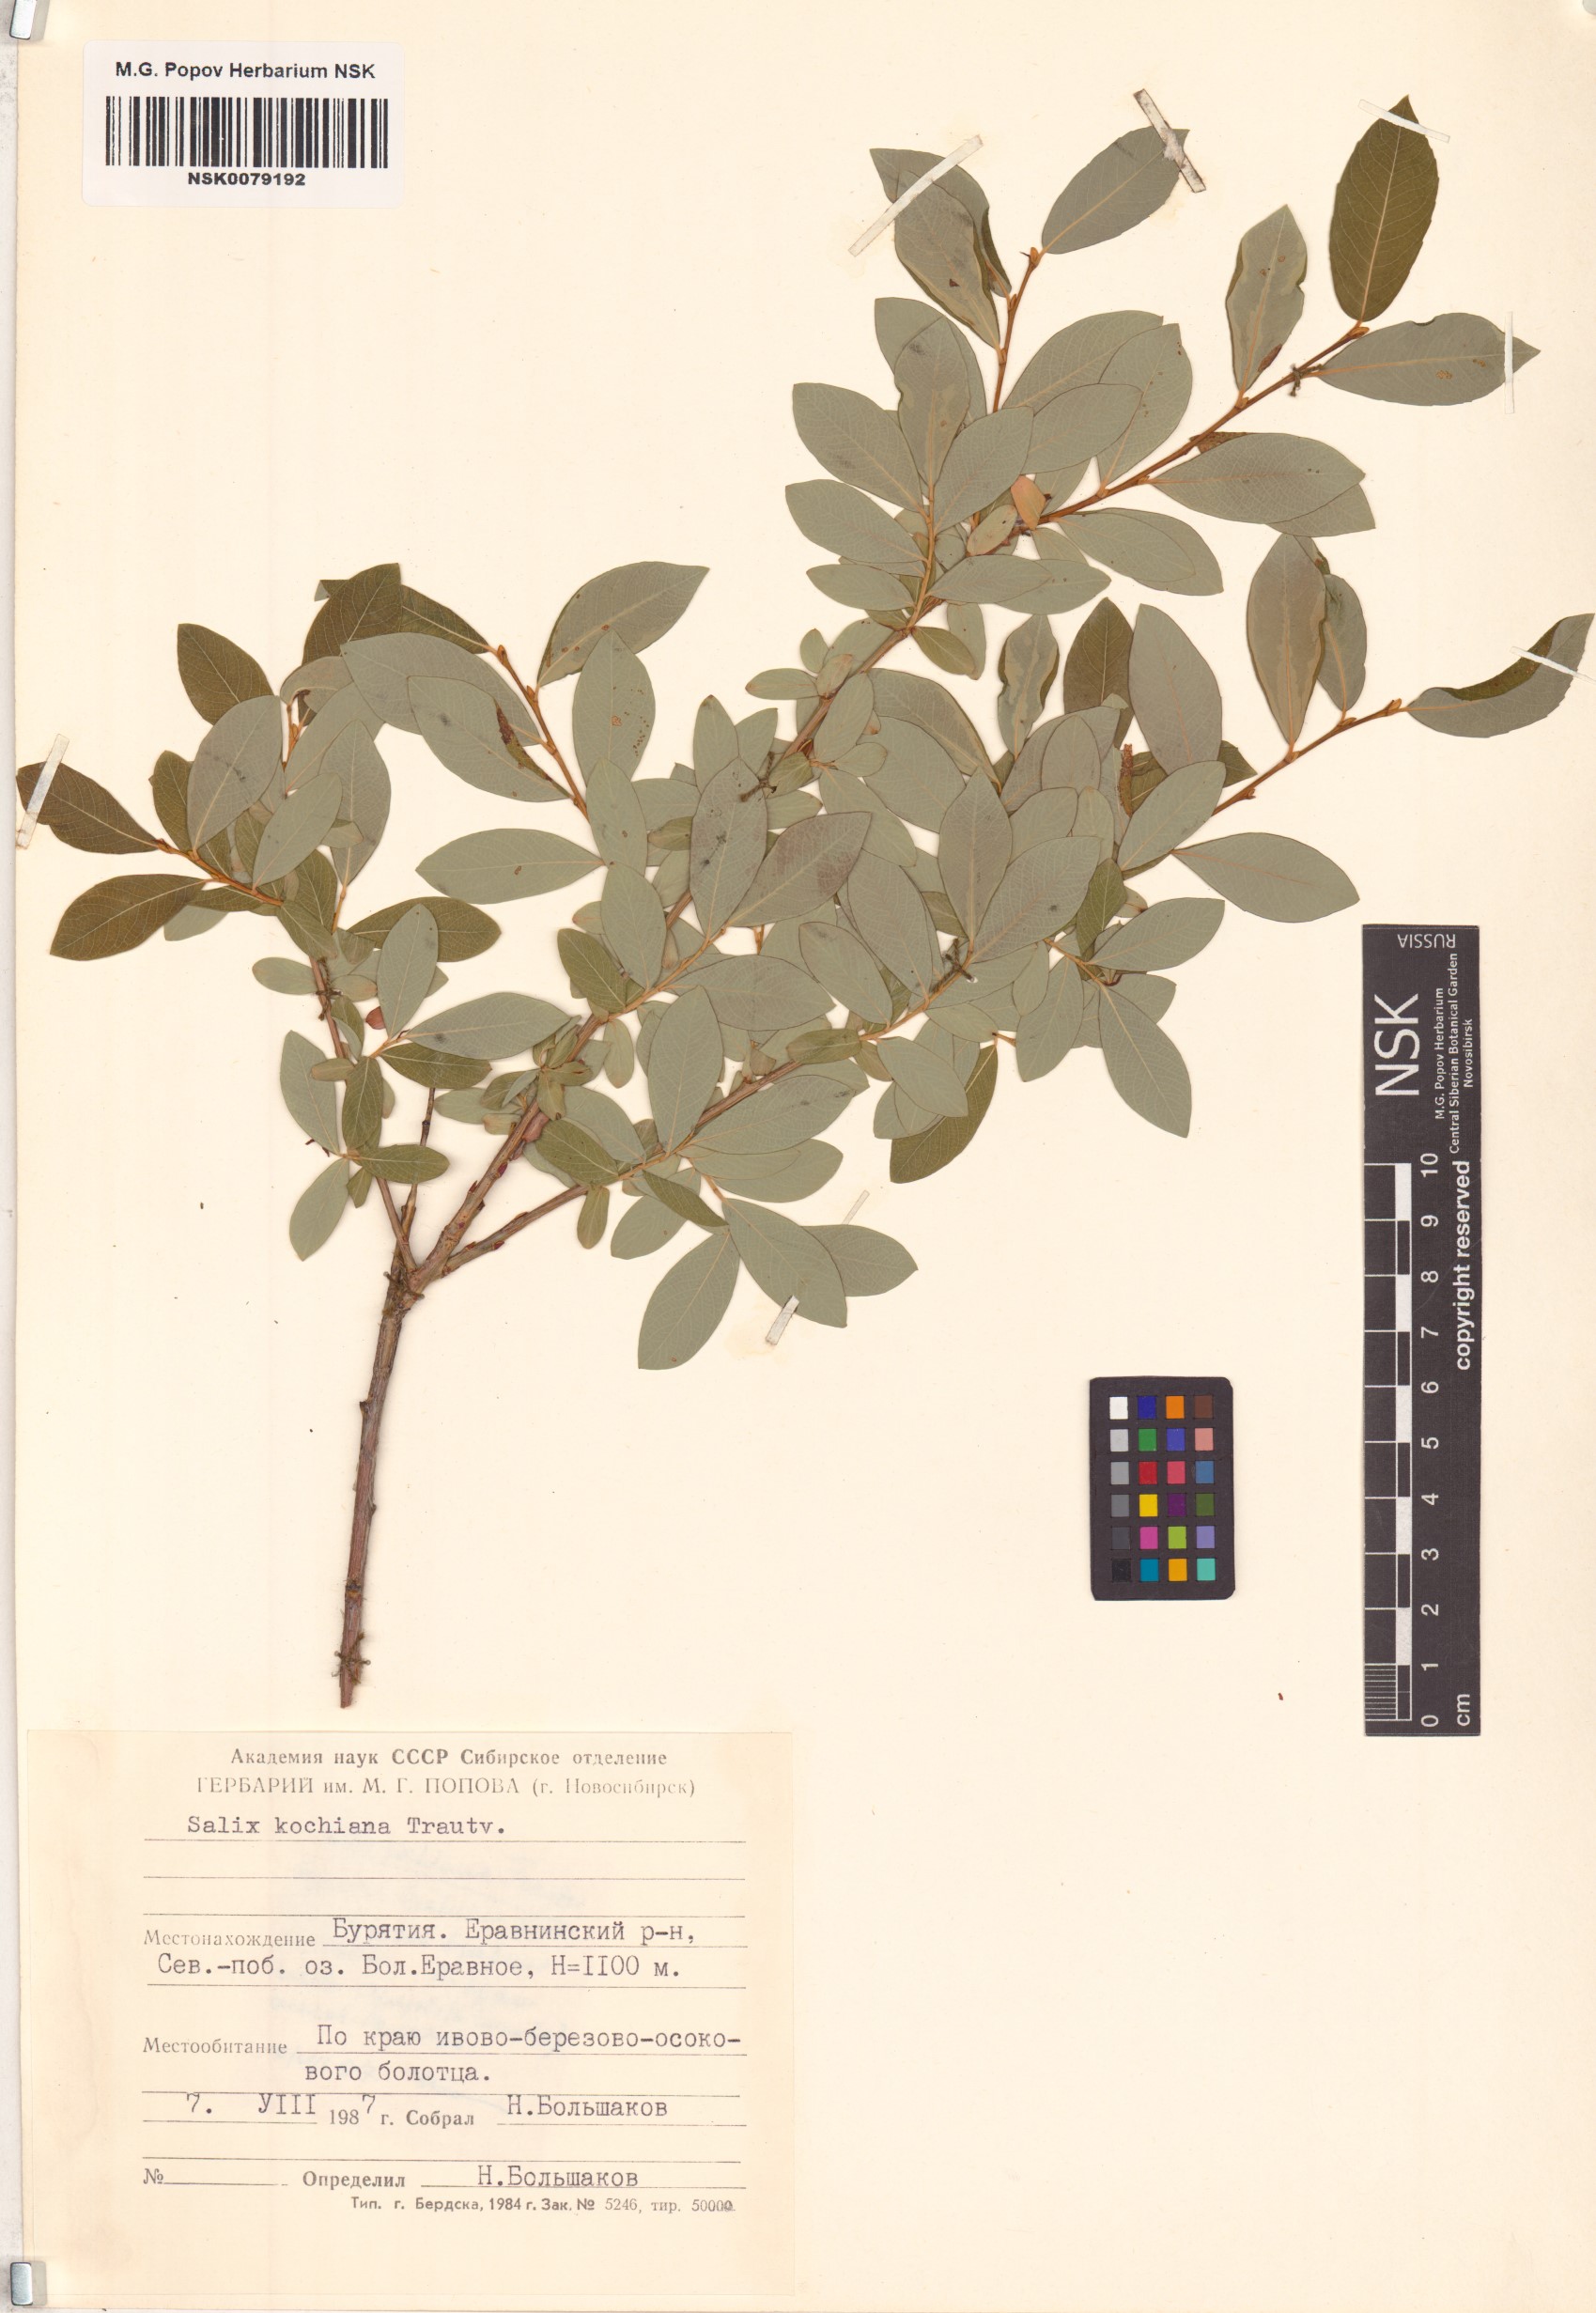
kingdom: Plantae
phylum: Tracheophyta
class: Magnoliopsida
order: Malpighiales
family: Salicaceae
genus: Salix
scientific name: Salix kochiana
